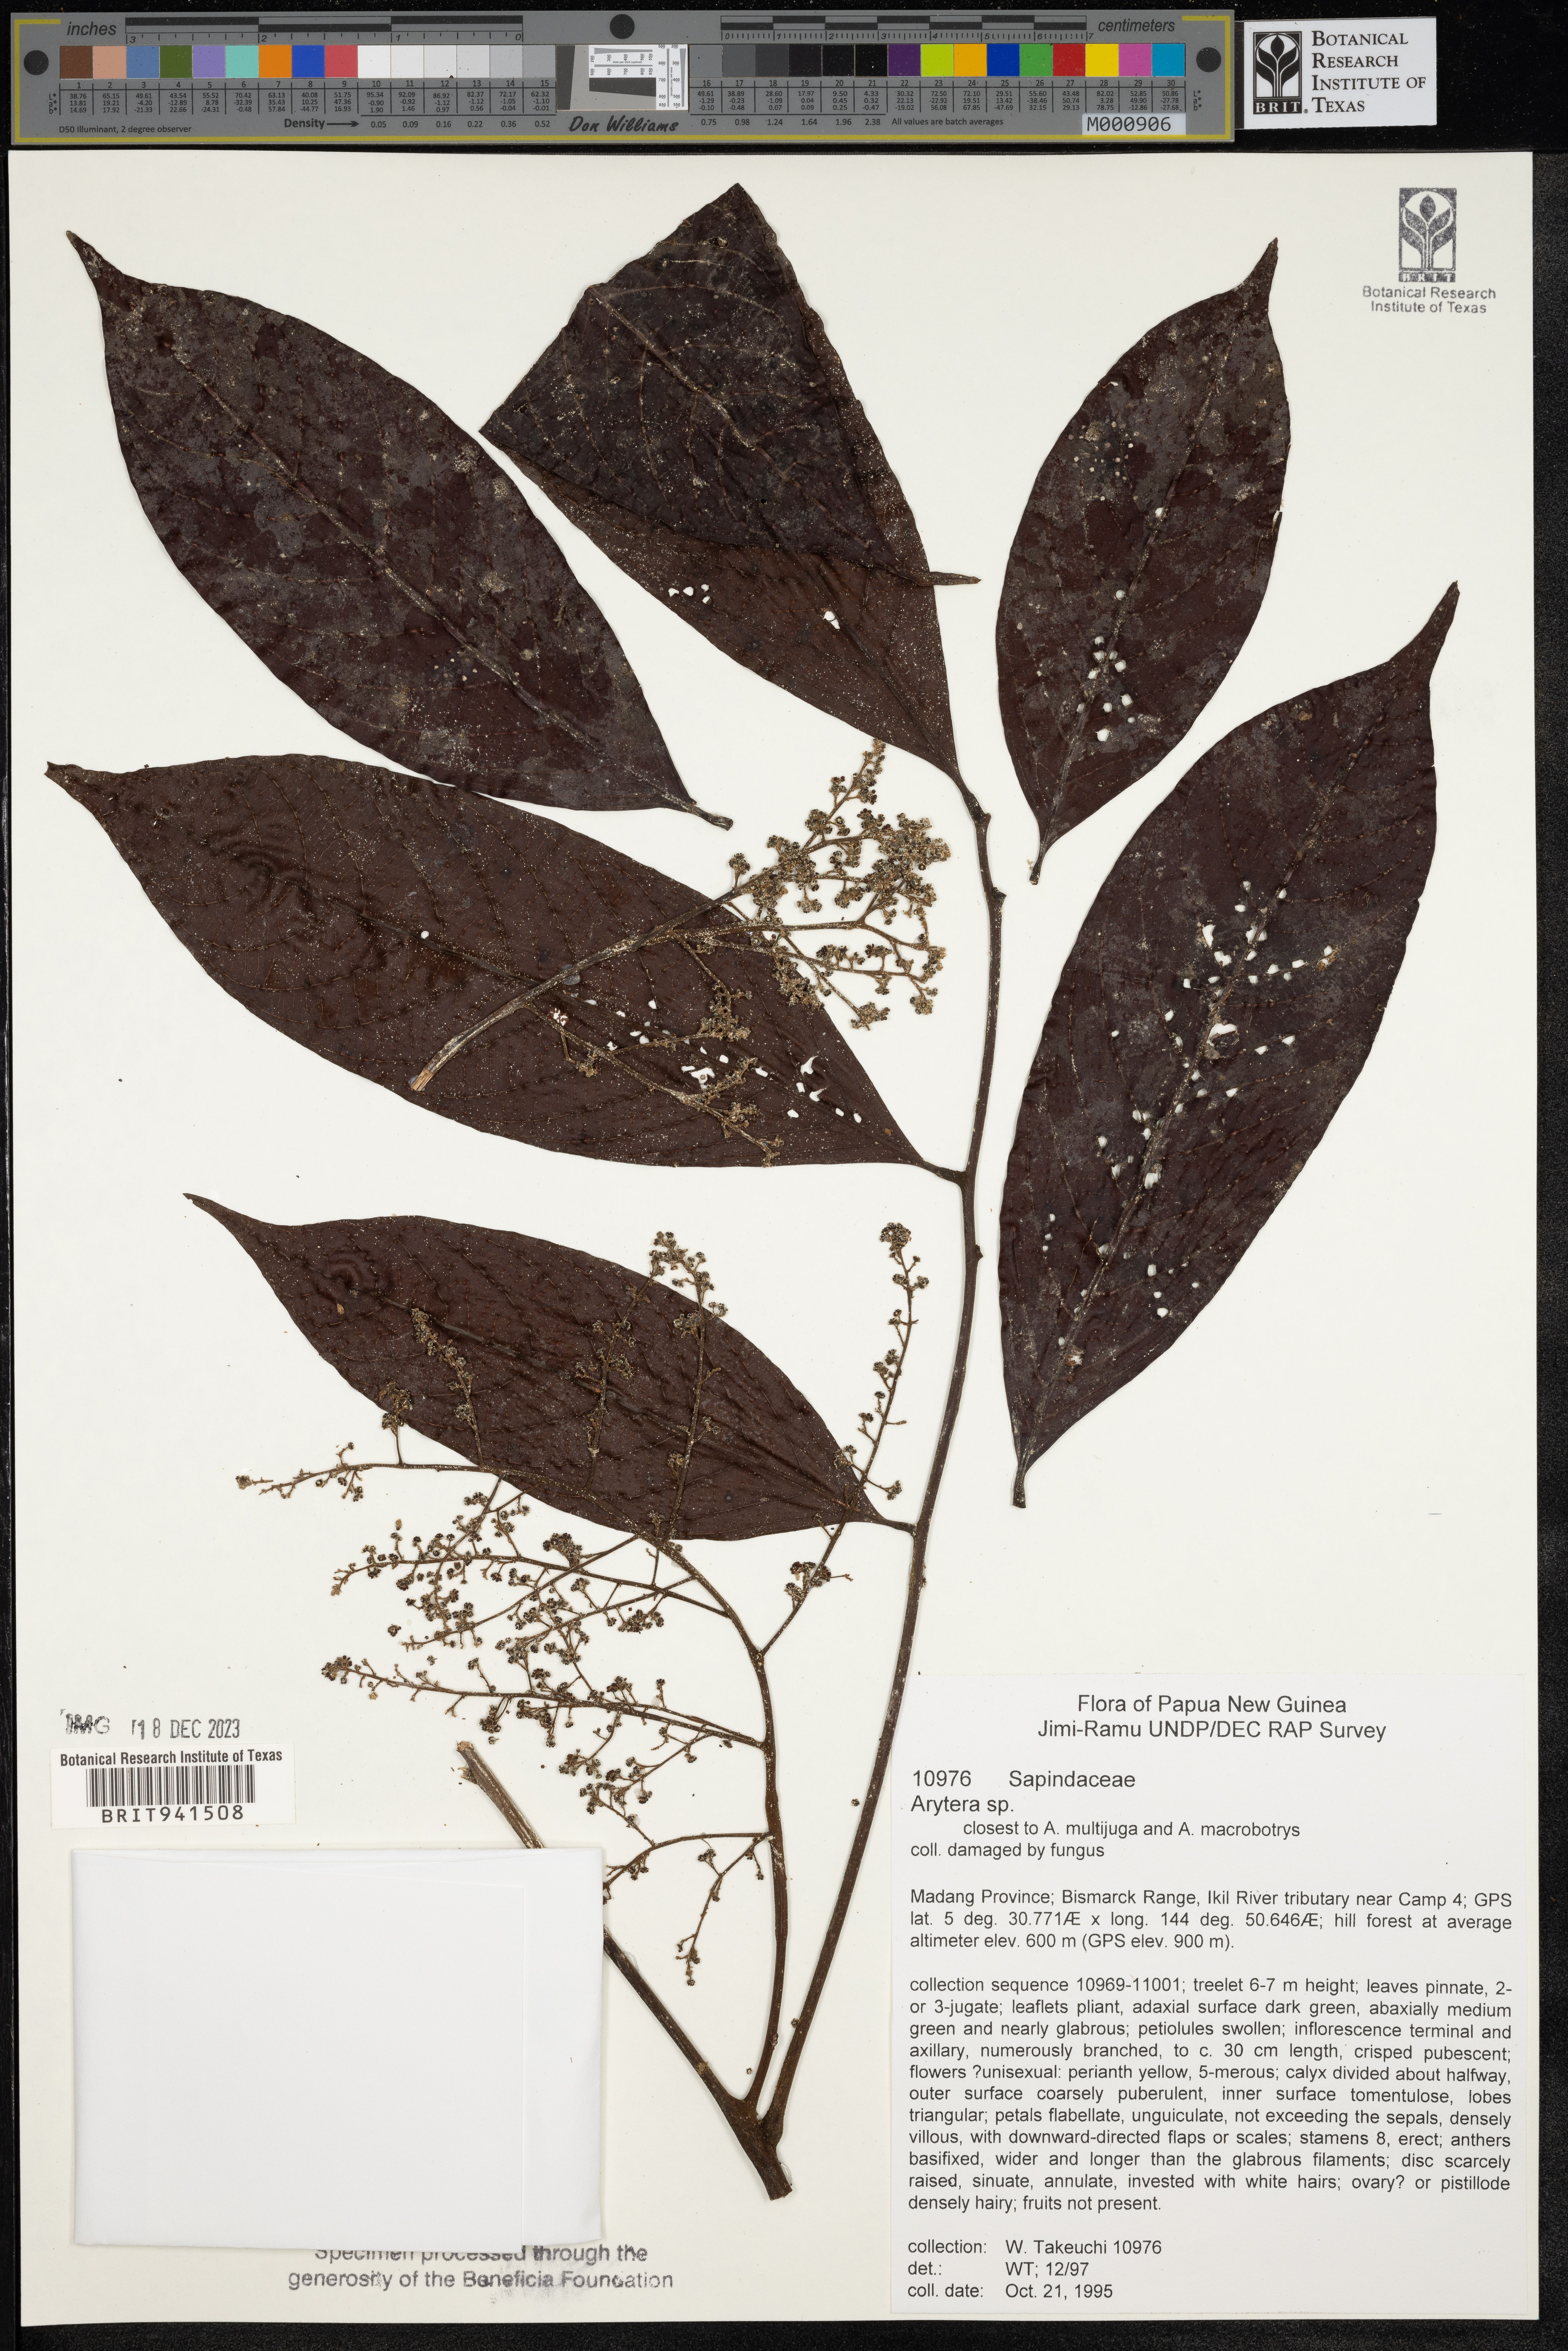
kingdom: Plantae
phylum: Tracheophyta
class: Magnoliopsida
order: Sapindales
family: Sapindaceae
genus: Arytera
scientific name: Arytera
